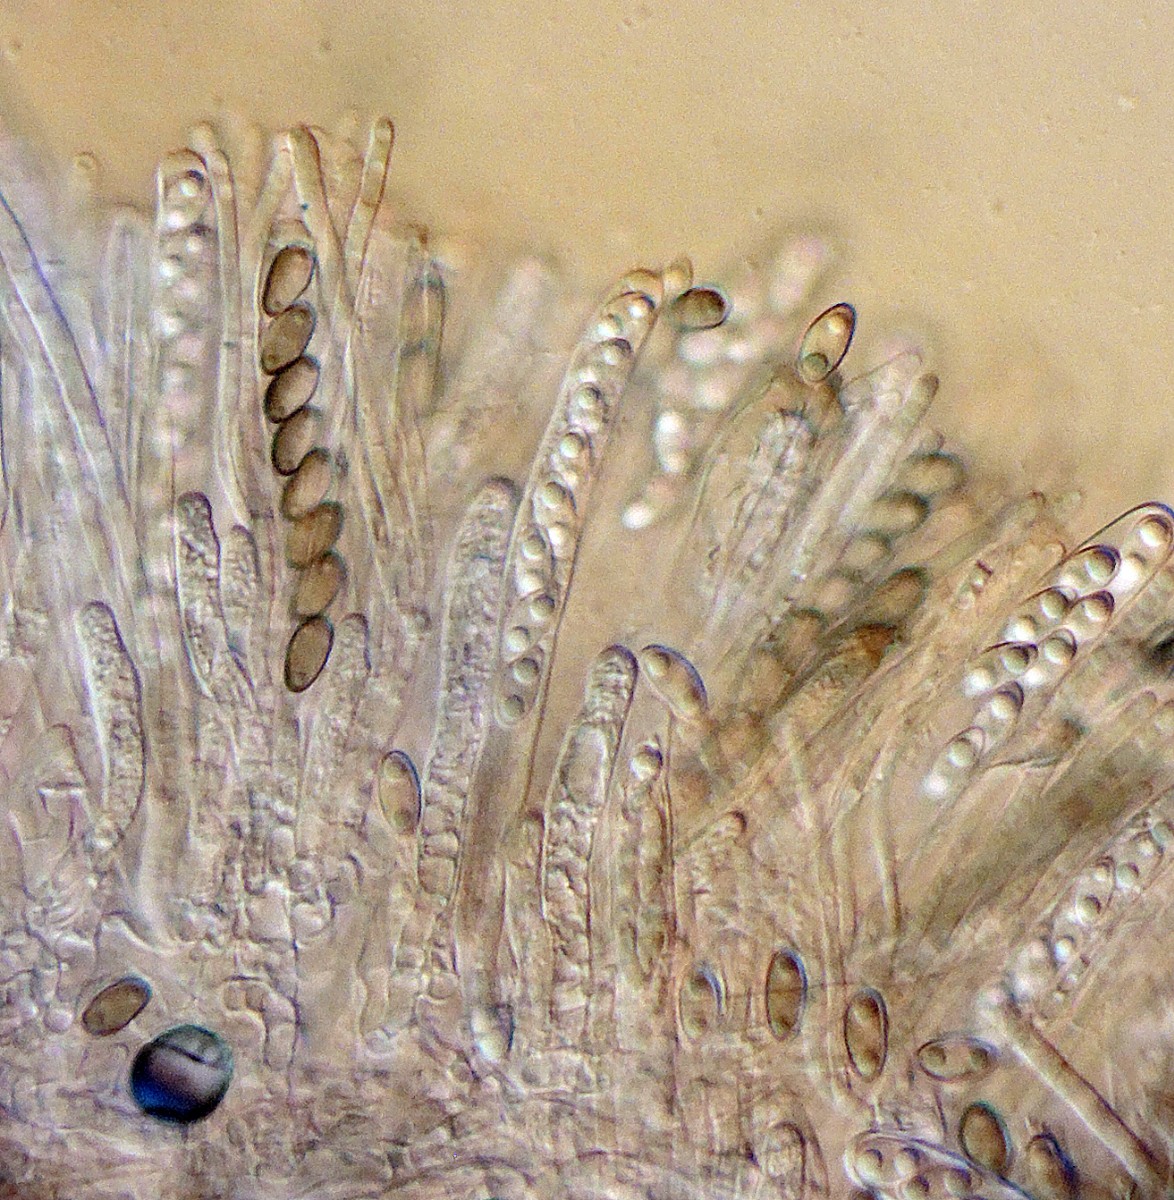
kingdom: Fungi
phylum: Ascomycota
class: Leotiomycetes
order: Helotiales
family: Rutstroemiaceae
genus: Lambertella
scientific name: Lambertella corni-maris
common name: frugt-sodskive
